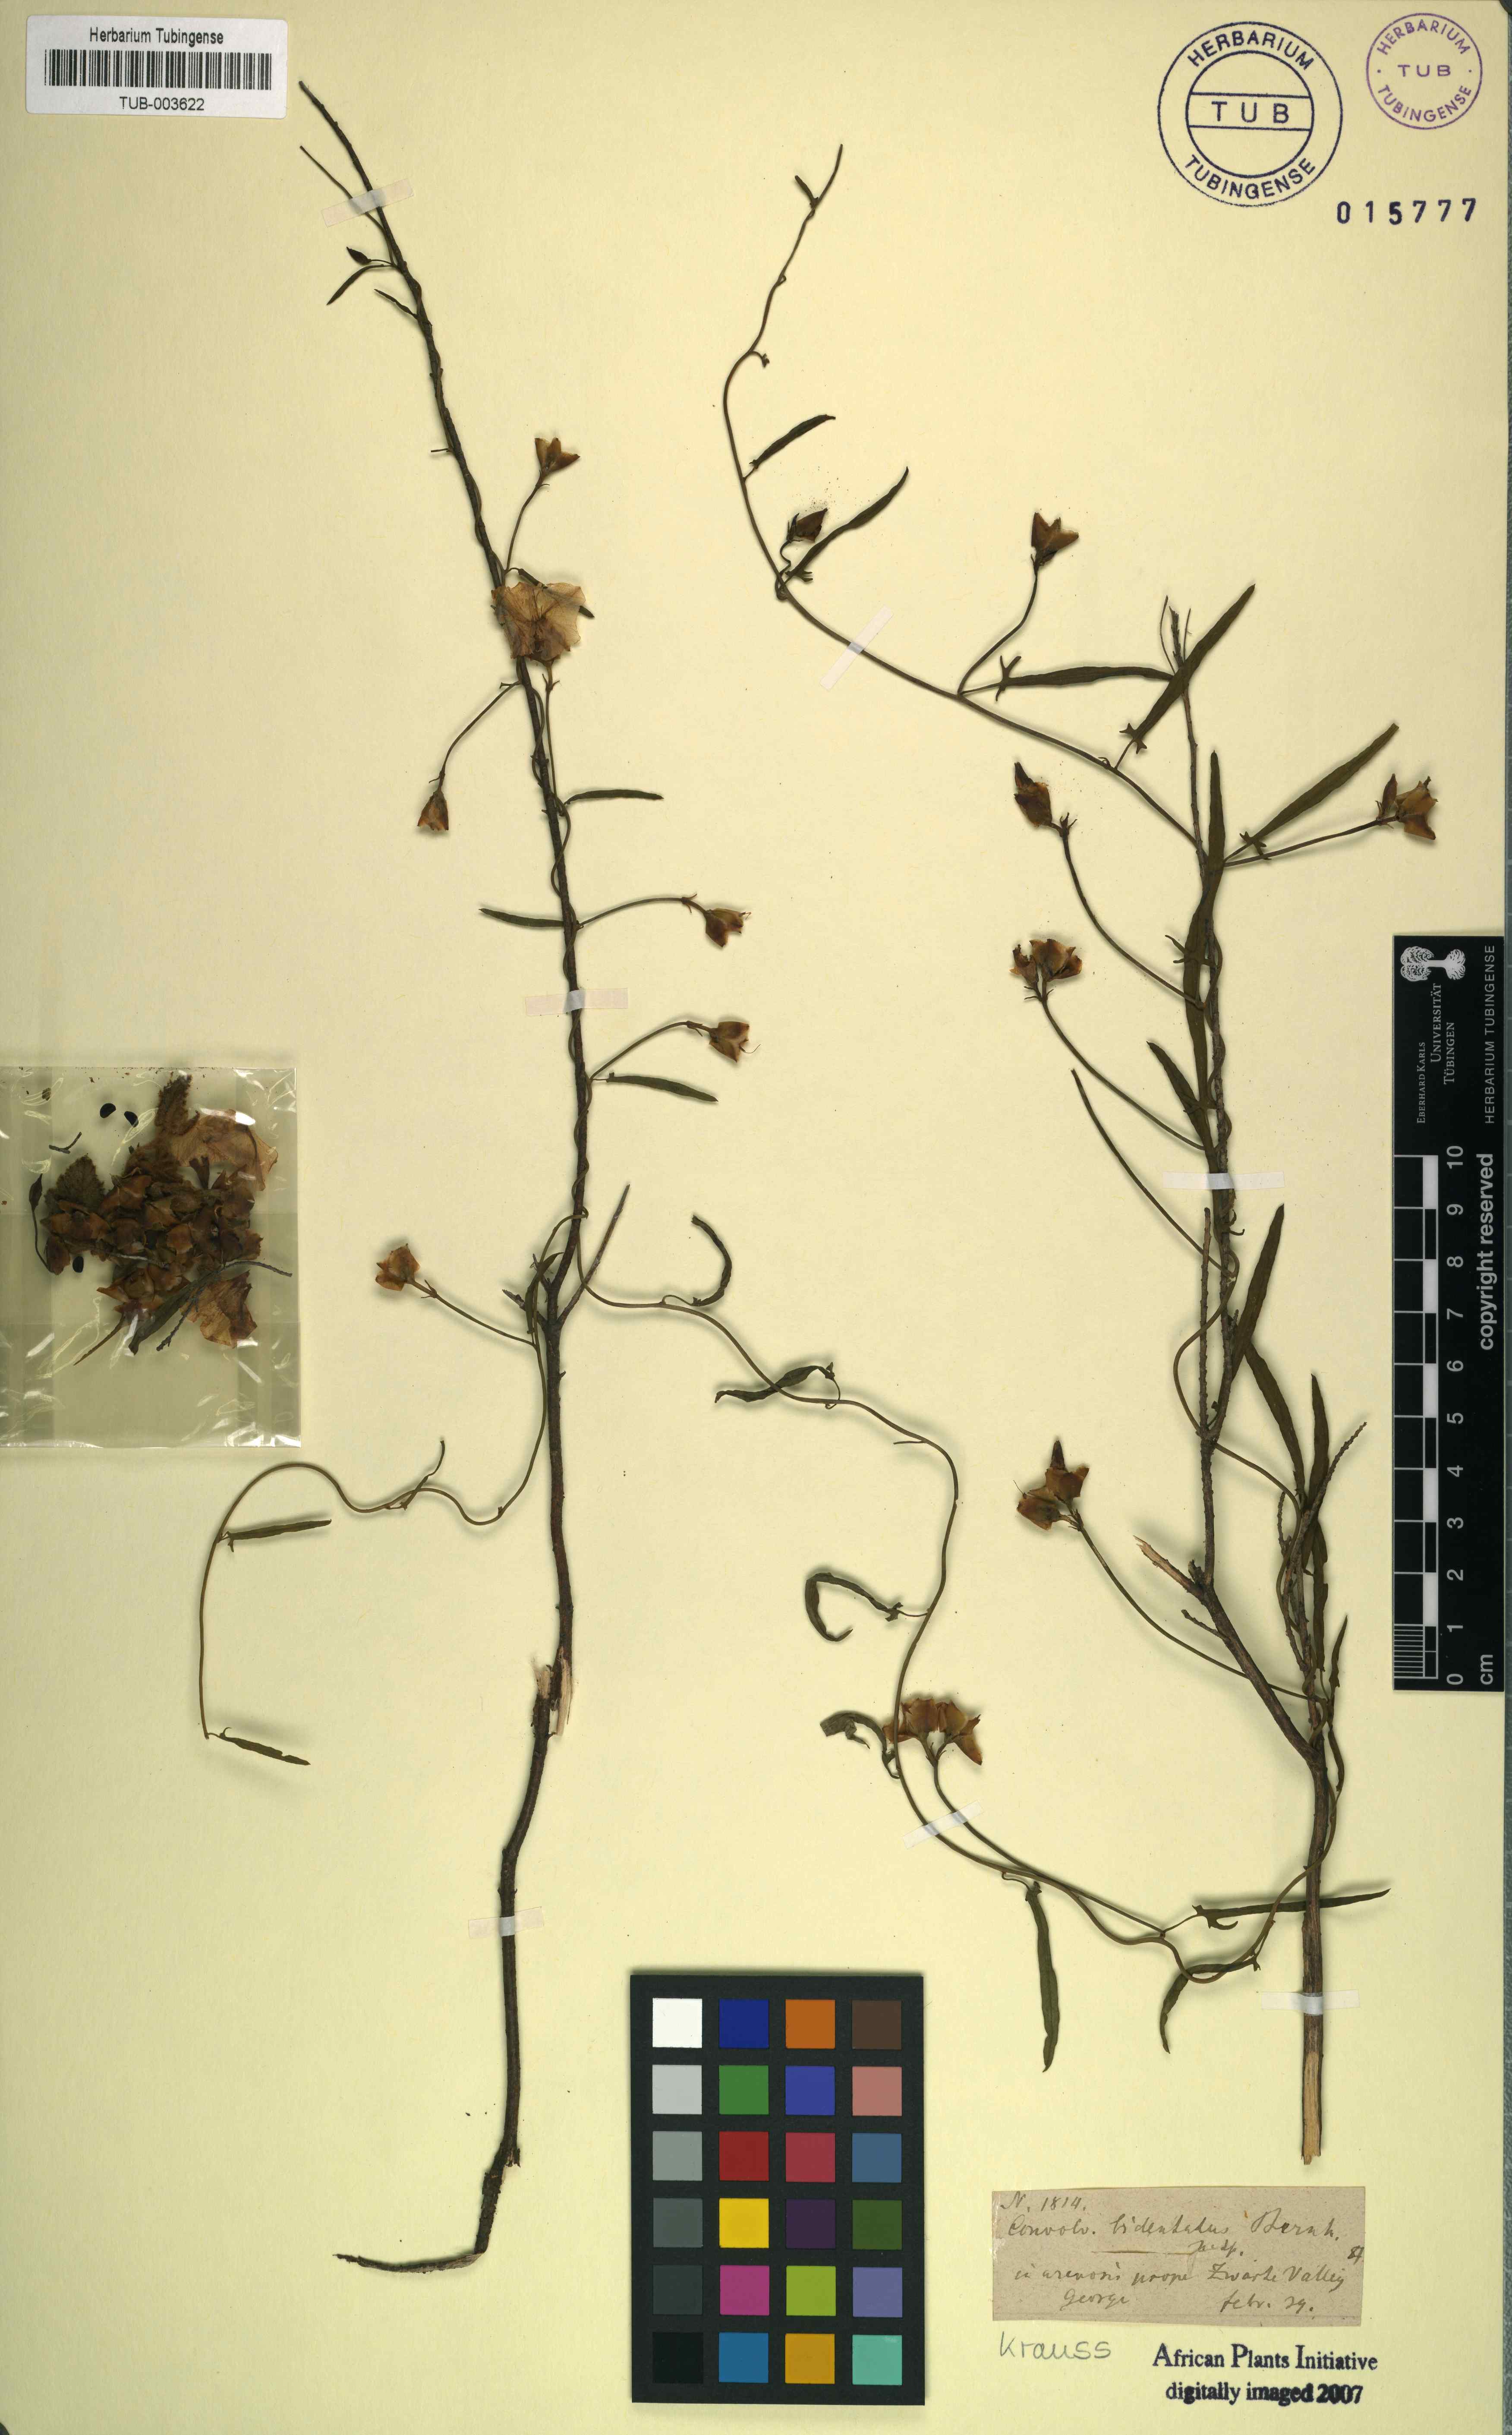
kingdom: Plantae
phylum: Tracheophyta
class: Magnoliopsida
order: Solanales
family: Convolvulaceae
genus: Convolvulus
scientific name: Convolvulus bidentatus
